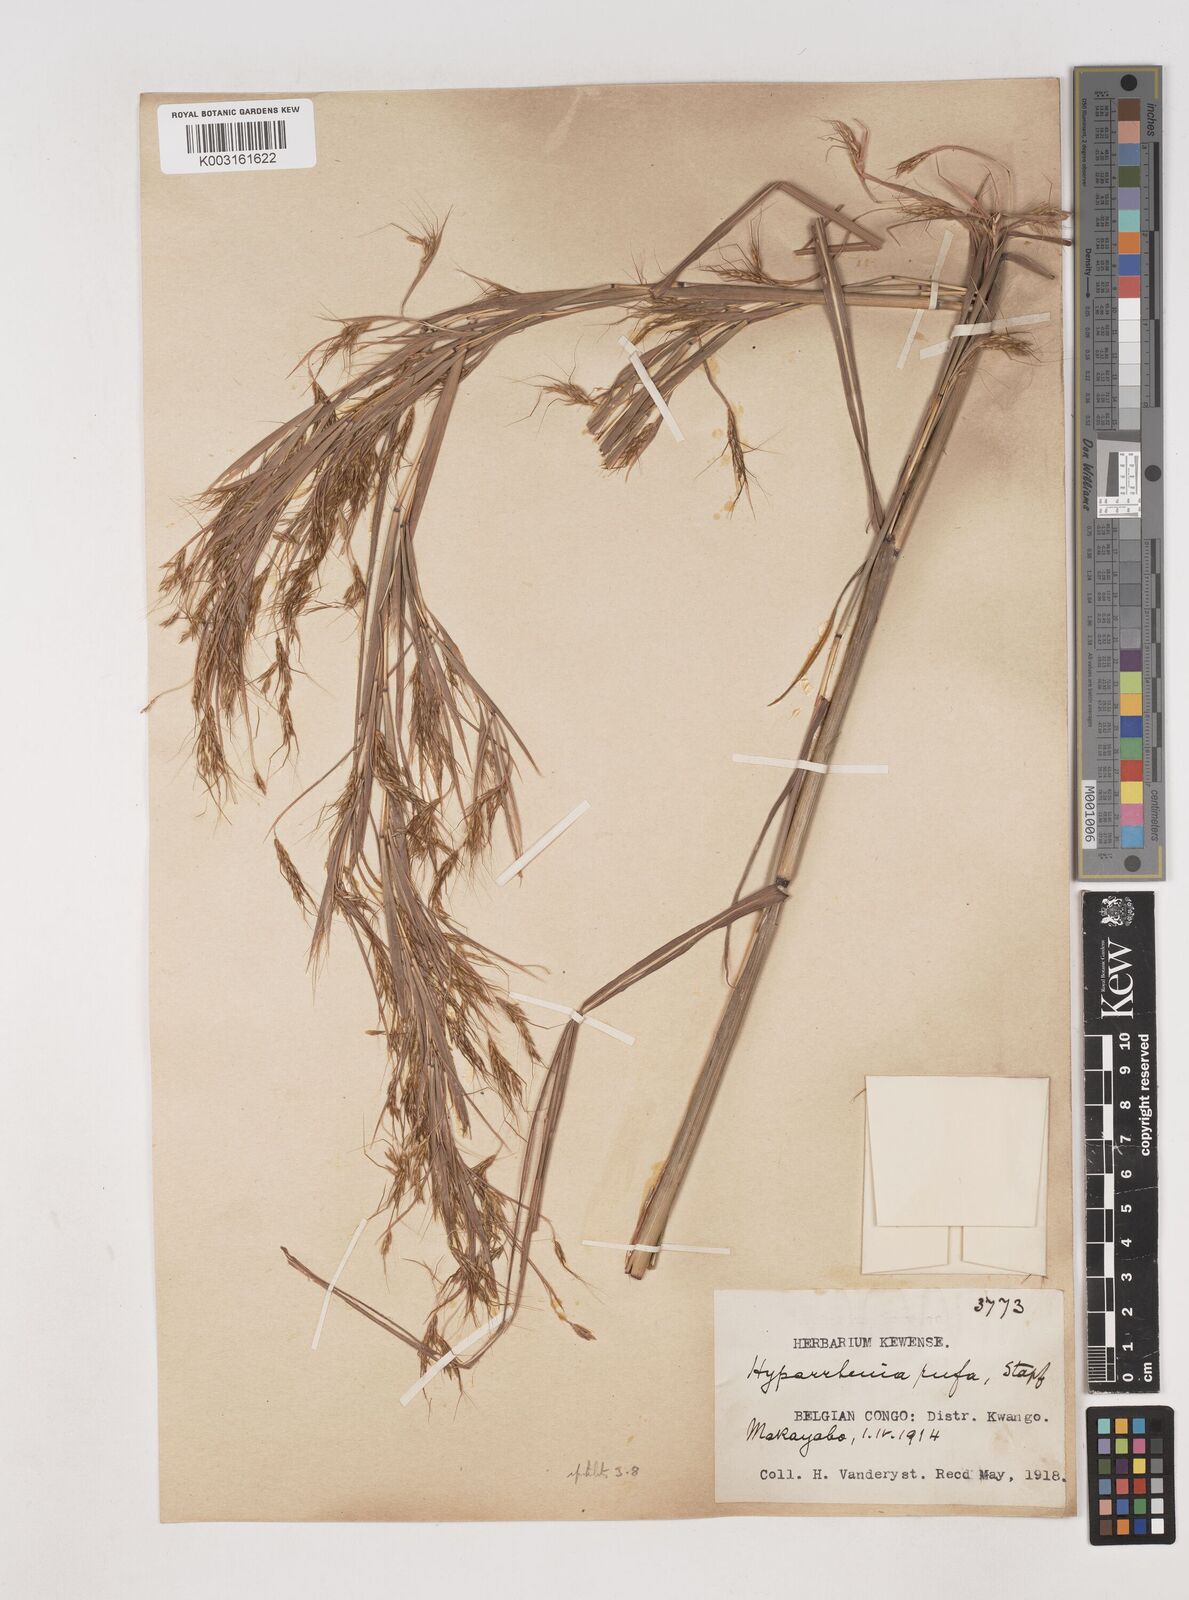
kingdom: Plantae
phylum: Tracheophyta
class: Liliopsida
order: Poales
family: Poaceae
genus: Hyparrhenia
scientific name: Hyparrhenia rufa
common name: Jaraguagrass
